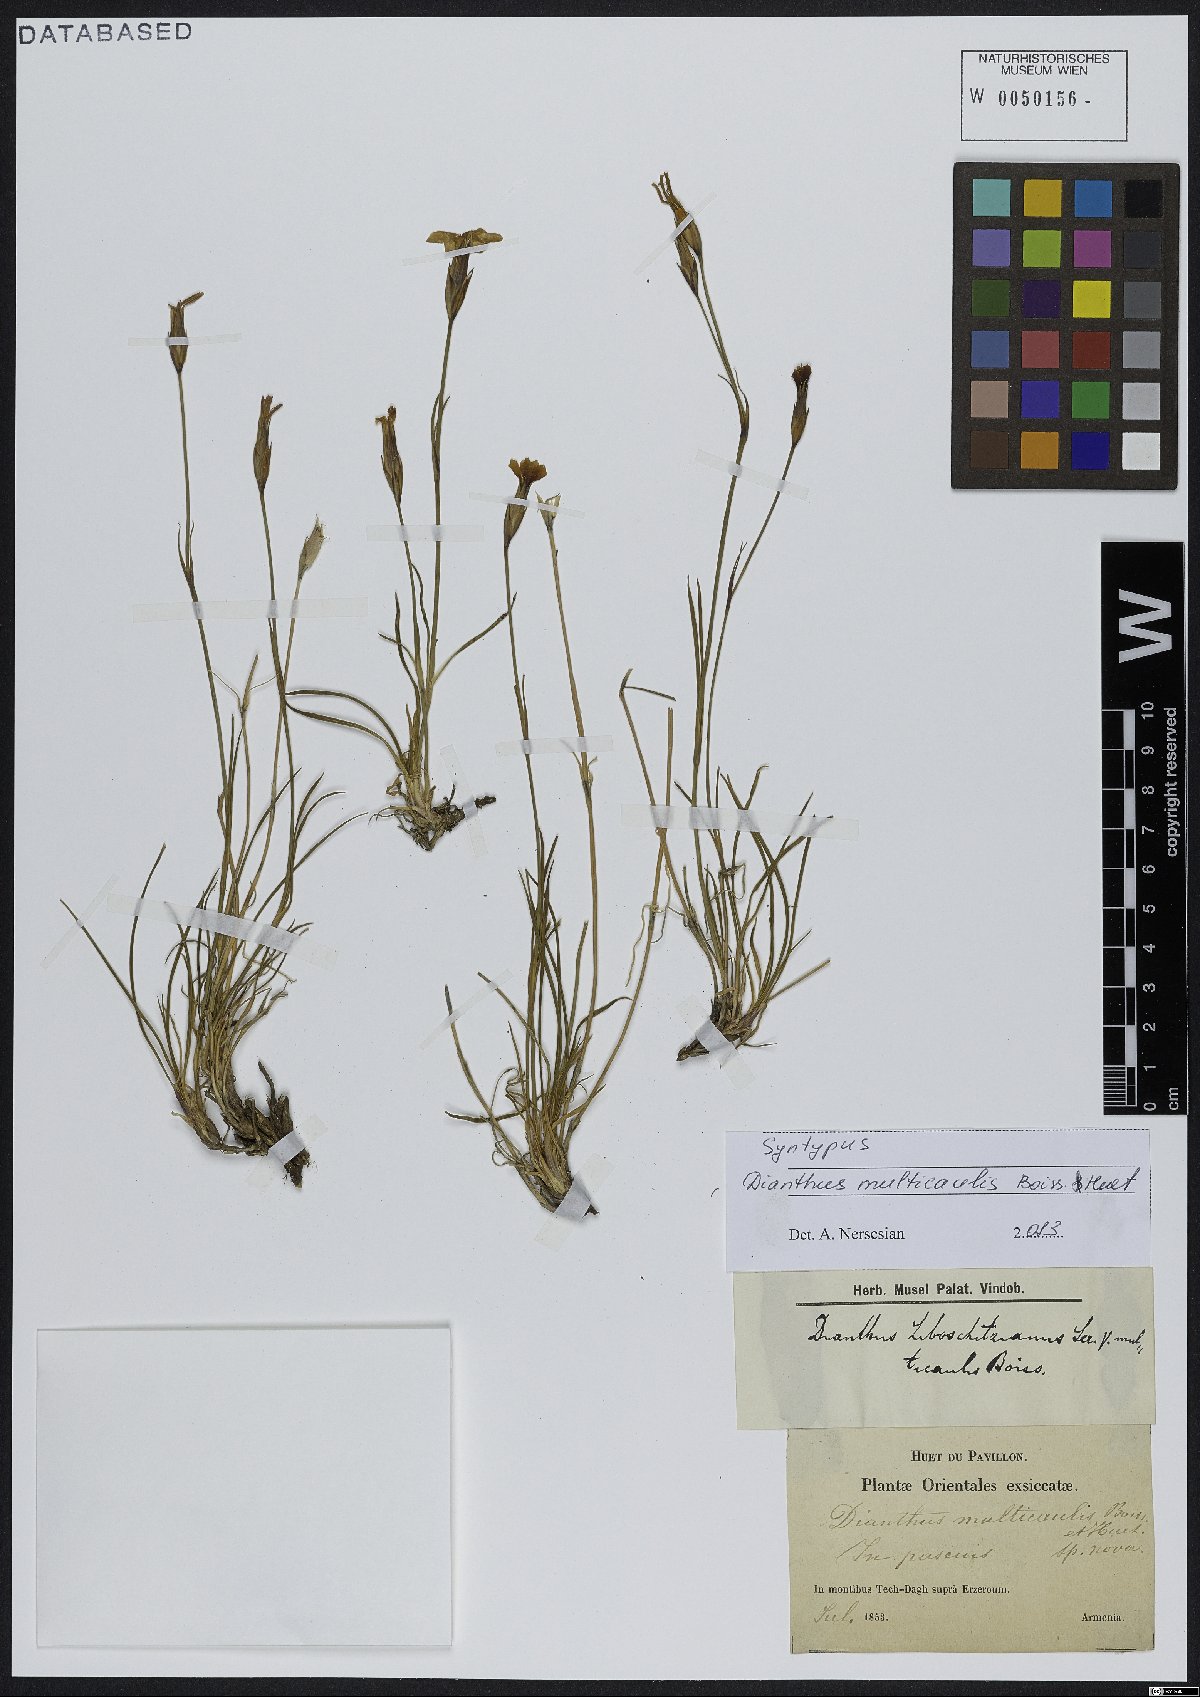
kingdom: Plantae
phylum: Tracheophyta
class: Magnoliopsida
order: Caryophyllales
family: Caryophyllaceae
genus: Dianthus
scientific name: Dianthus cretaceus
